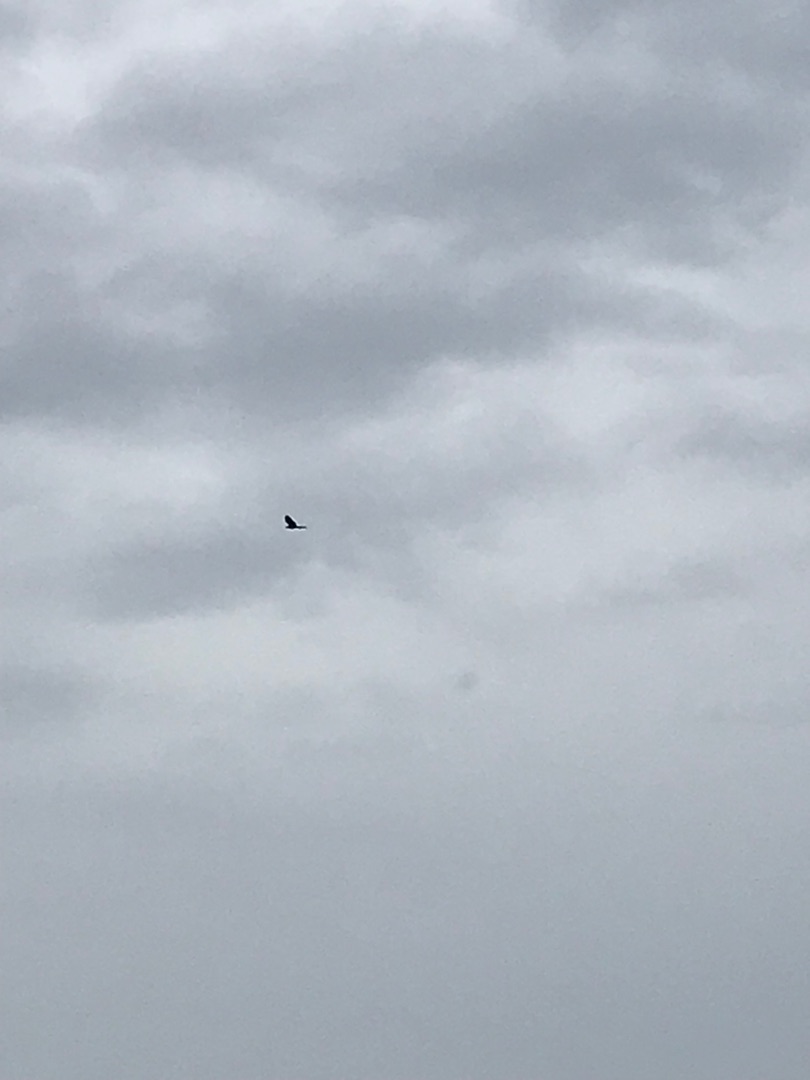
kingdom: Animalia
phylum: Chordata
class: Aves
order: Accipitriformes
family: Accipitridae
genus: Milvus
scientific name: Milvus milvus
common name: Rød glente
